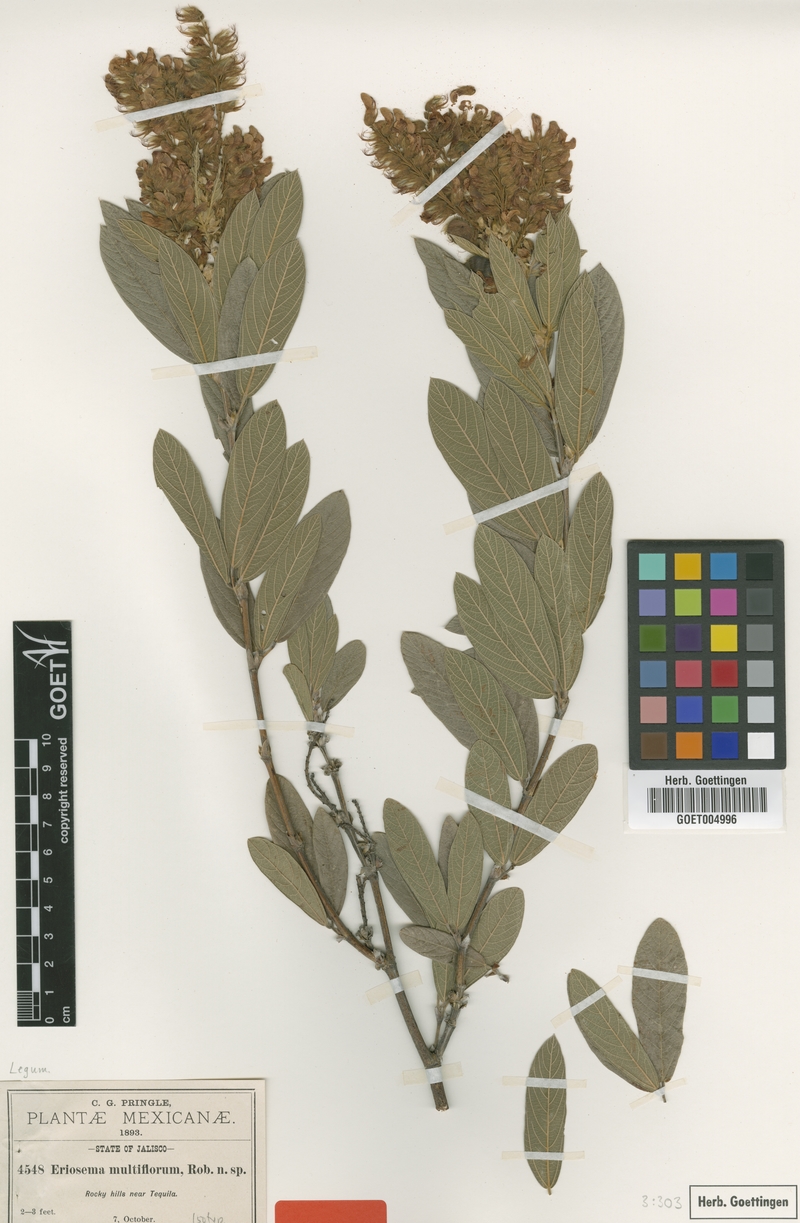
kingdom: Plantae
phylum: Tracheophyta
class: Magnoliopsida
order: Fabales
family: Fabaceae
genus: Eriosema
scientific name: Eriosema multiflorum
